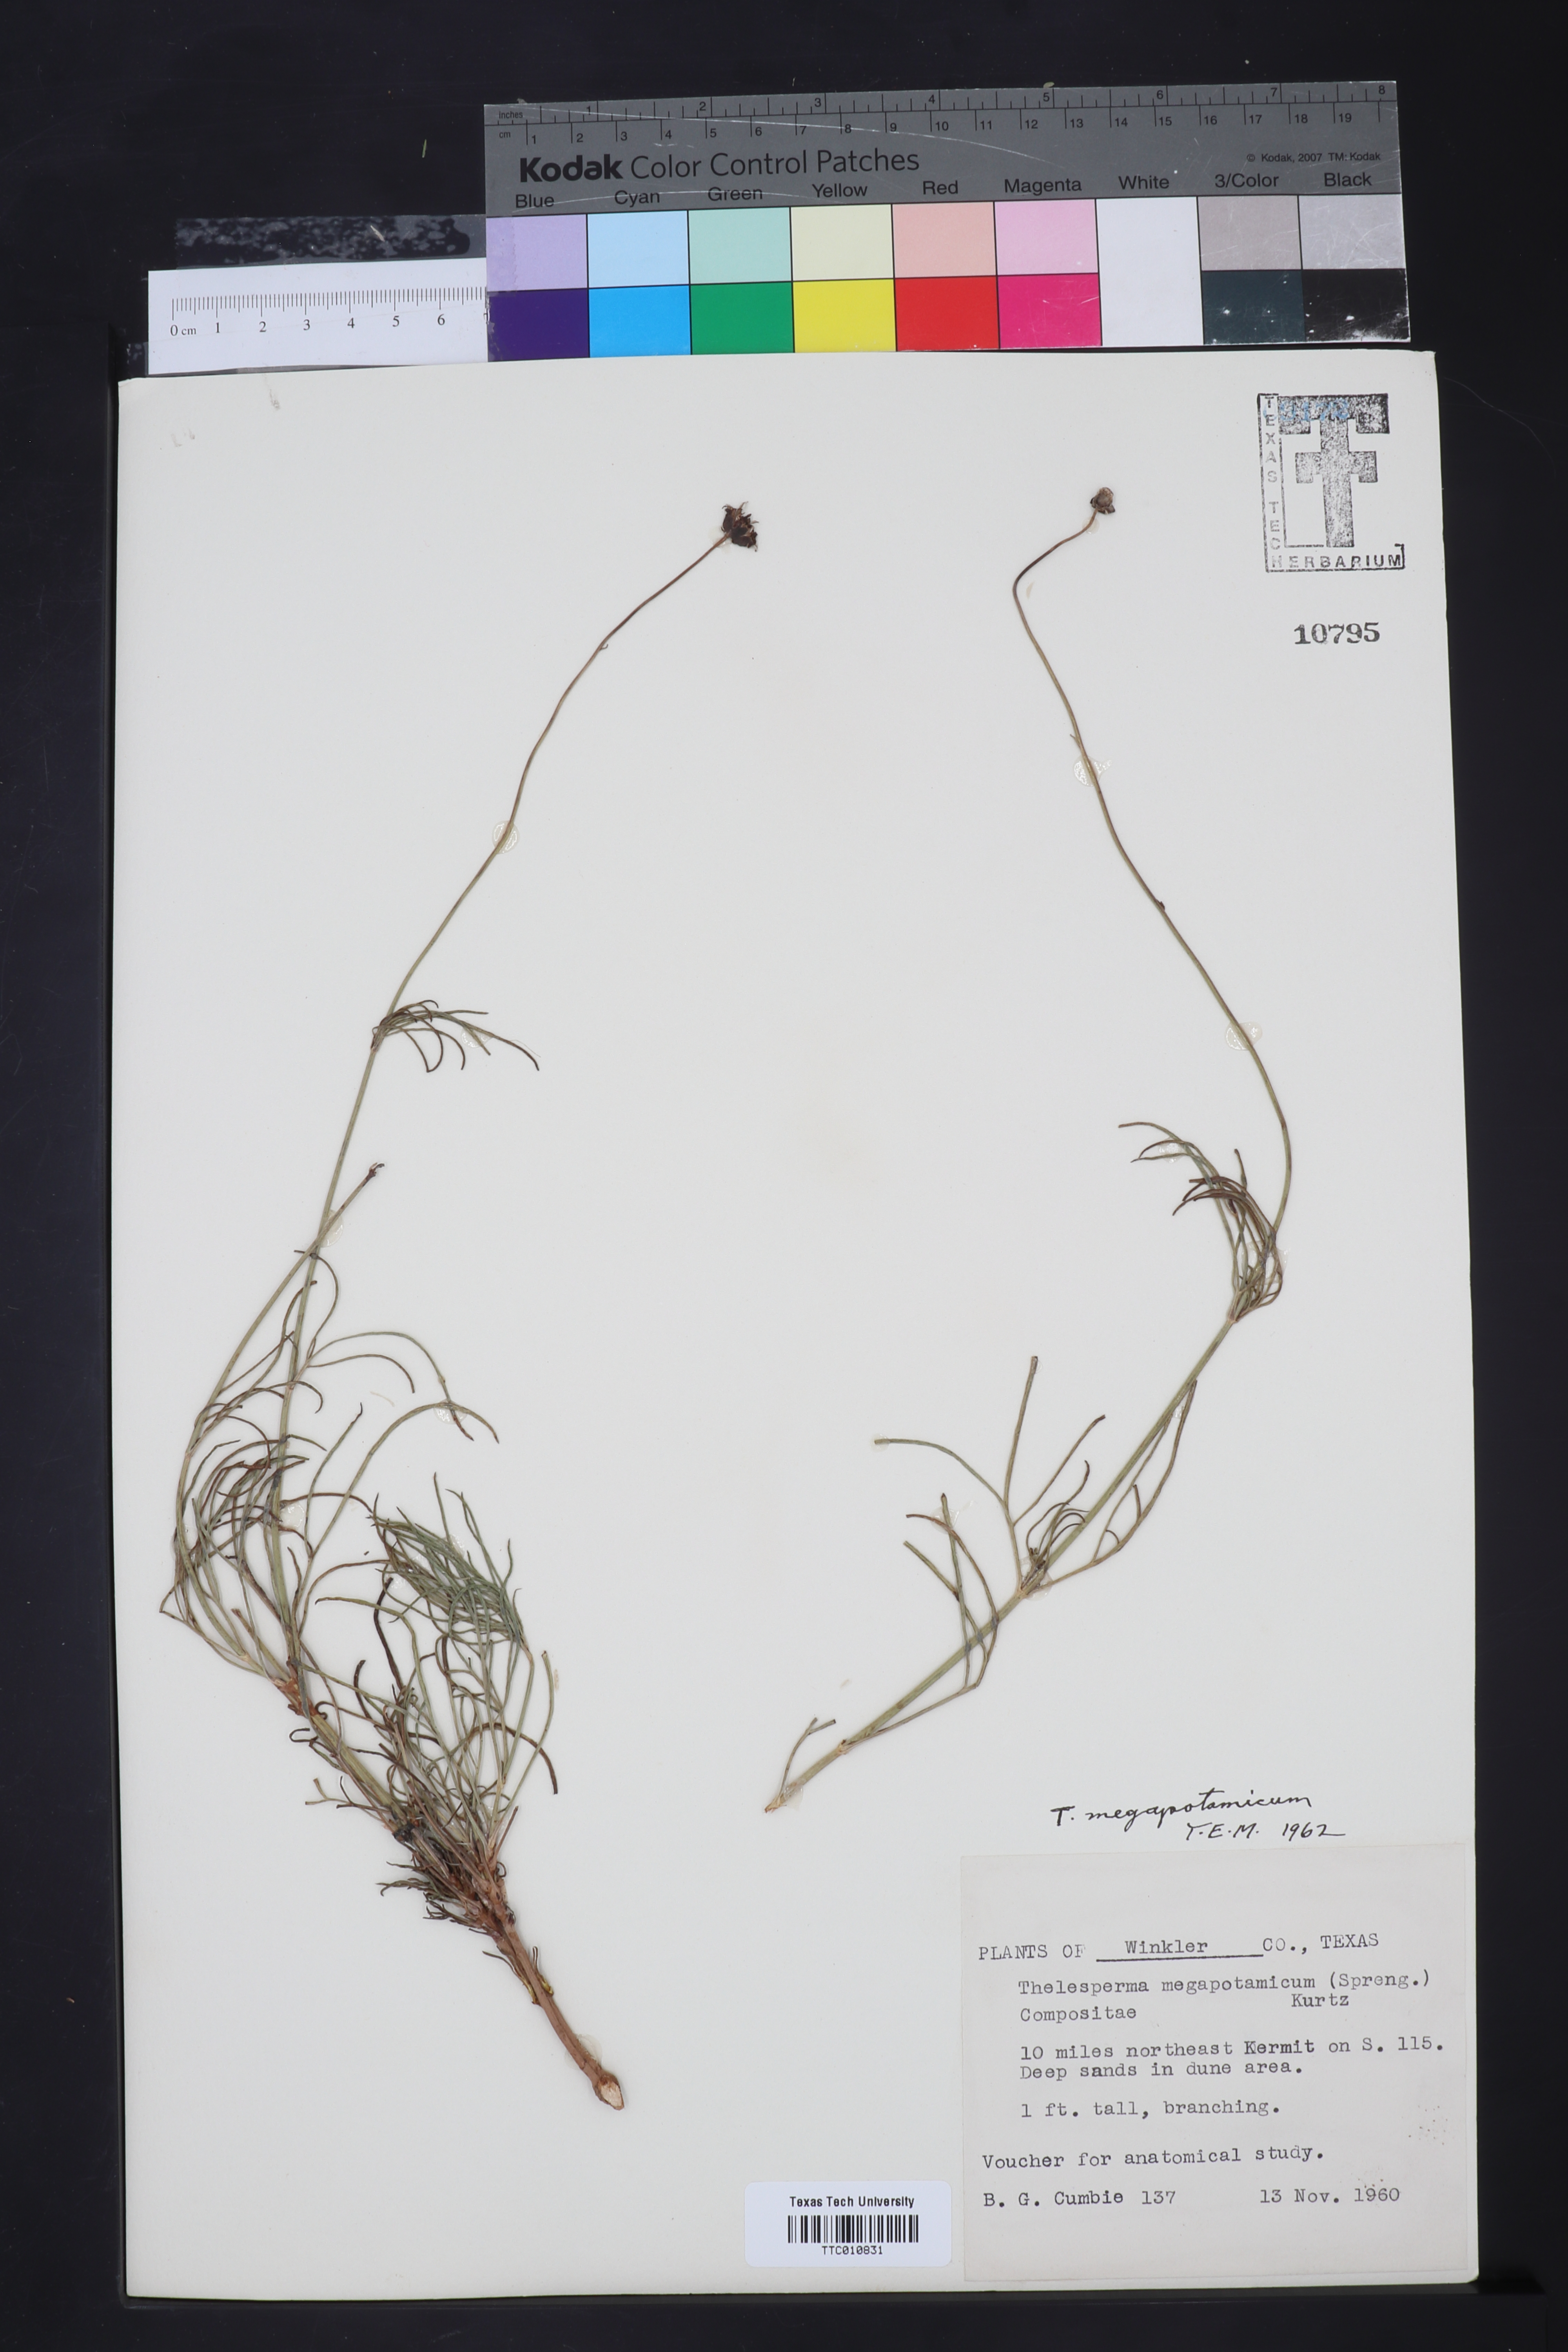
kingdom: Plantae
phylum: Tracheophyta
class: Magnoliopsida
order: Asterales
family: Asteraceae
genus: Thelesperma
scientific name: Thelesperma megapotamicum
